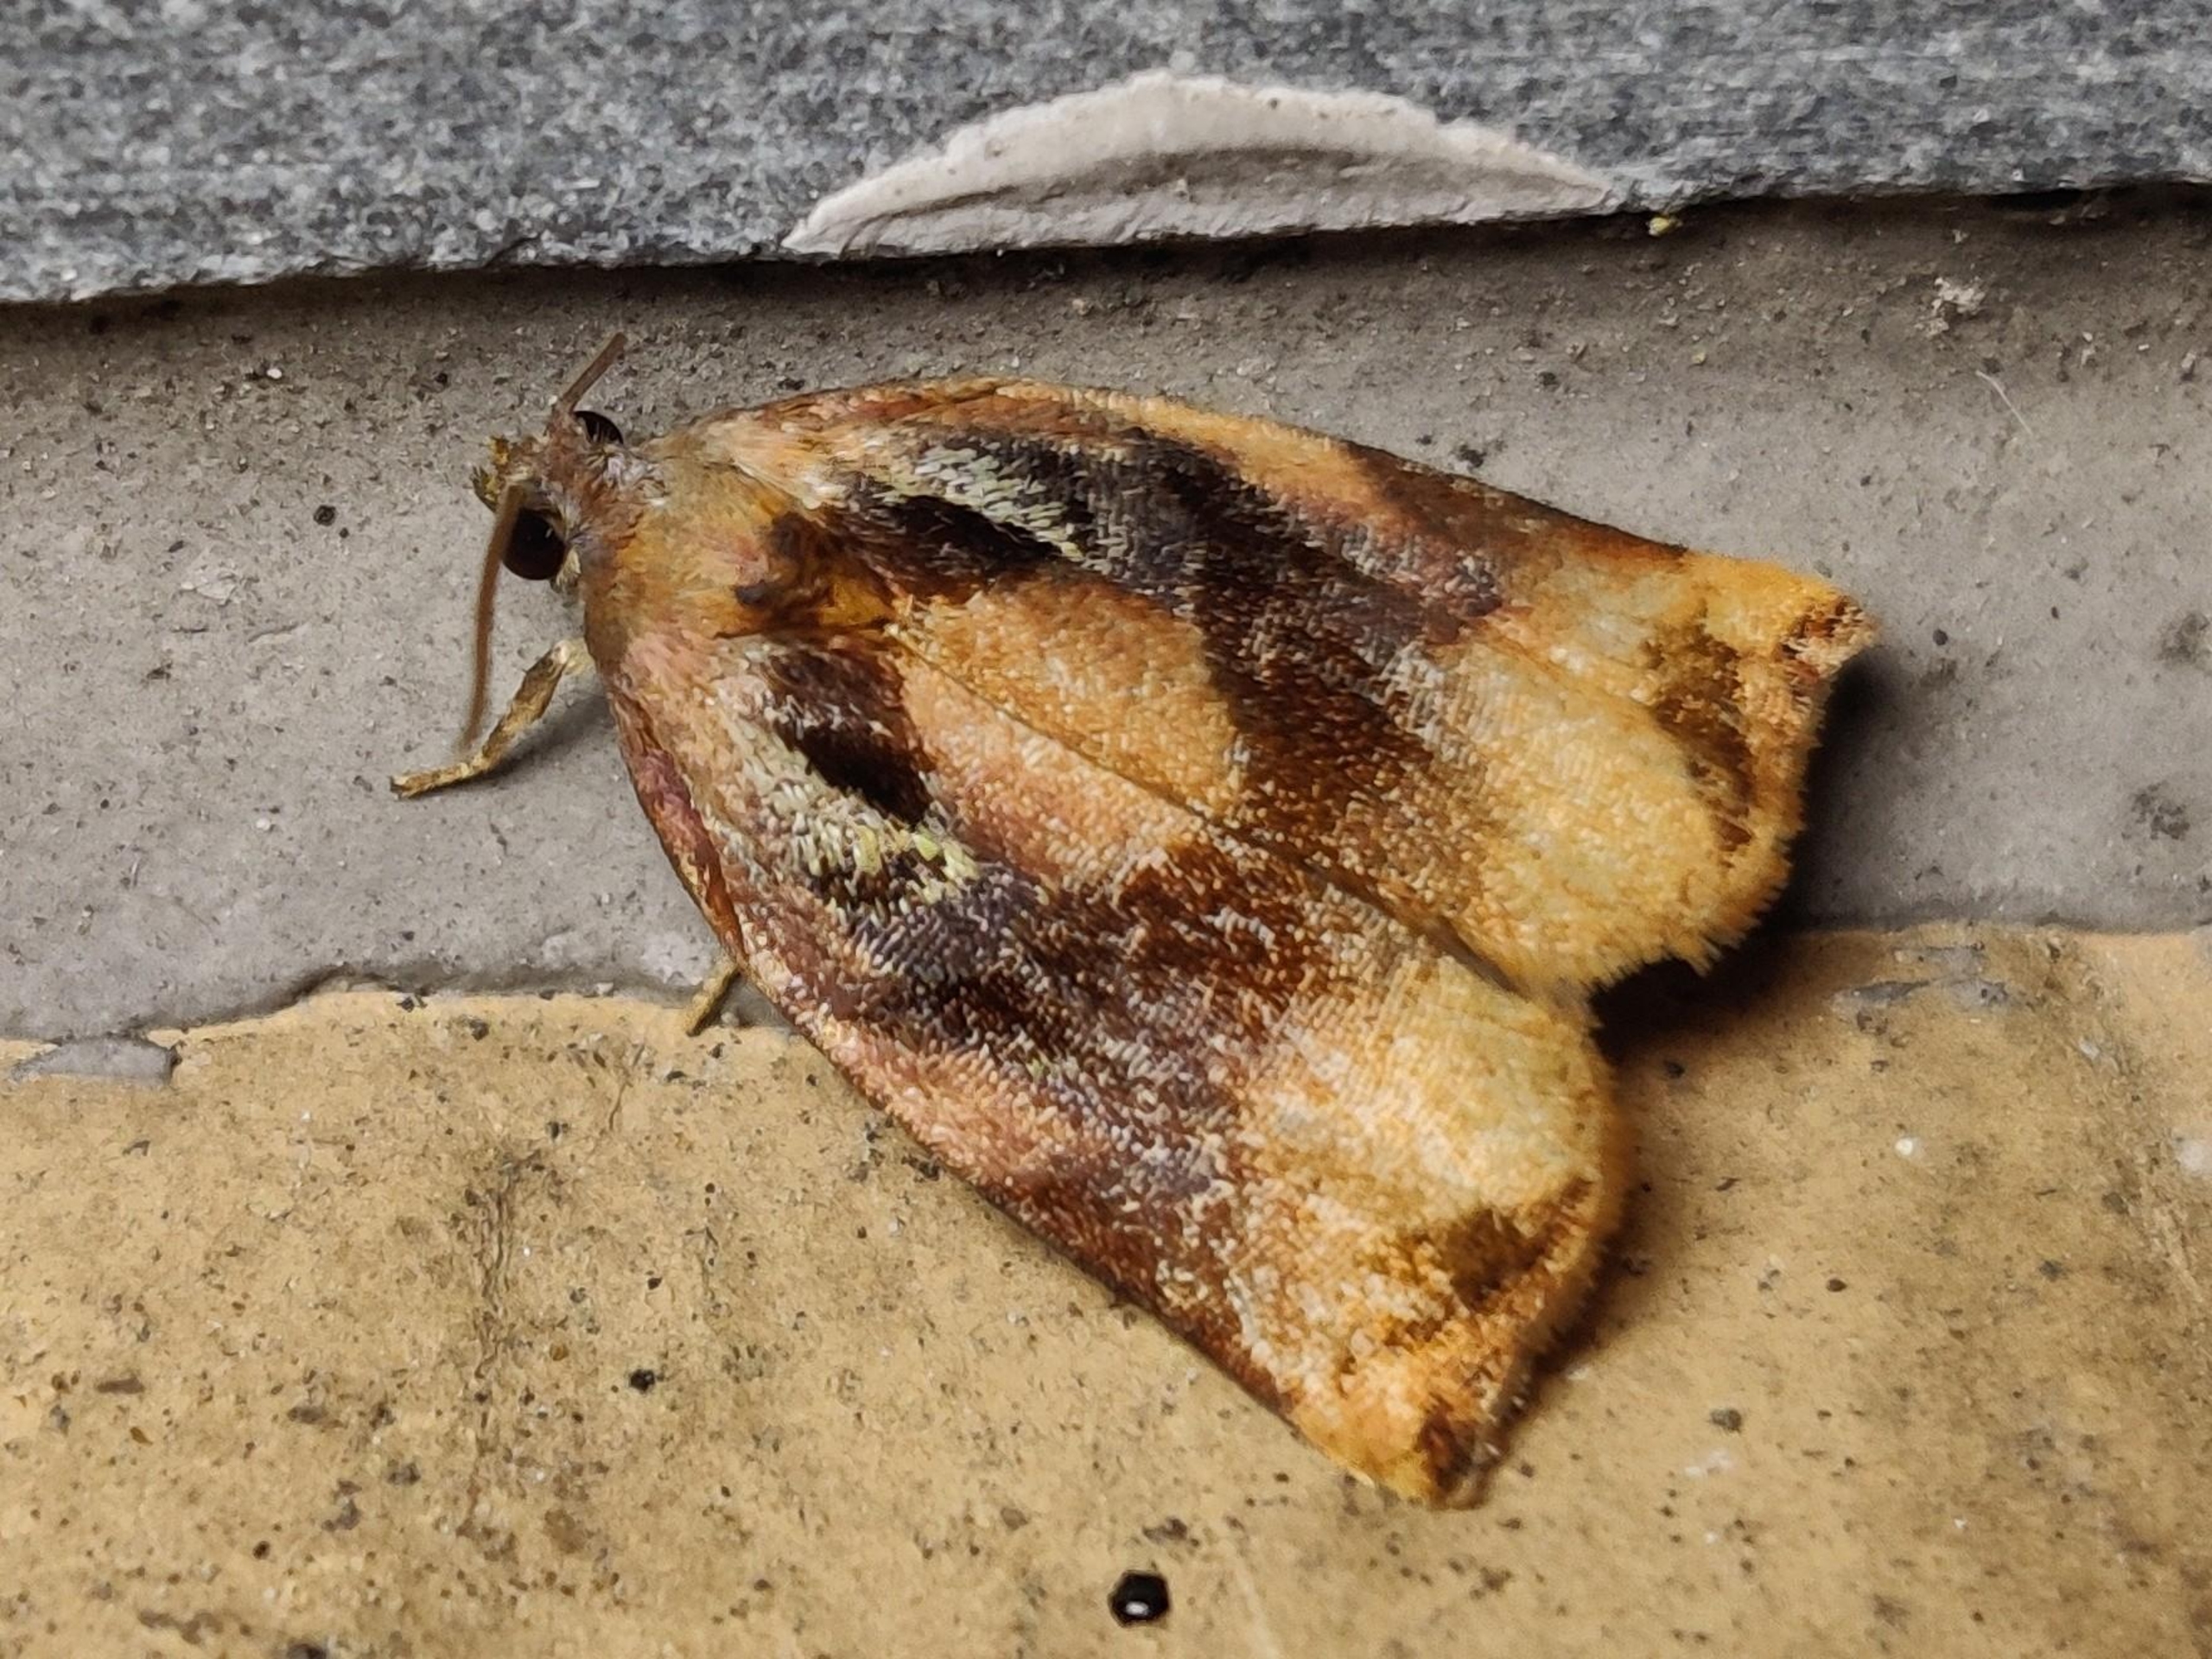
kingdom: Animalia
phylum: Arthropoda
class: Insecta
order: Lepidoptera
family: Tortricidae
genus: Archips
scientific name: Archips podana
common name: Frugttræsommervikler
